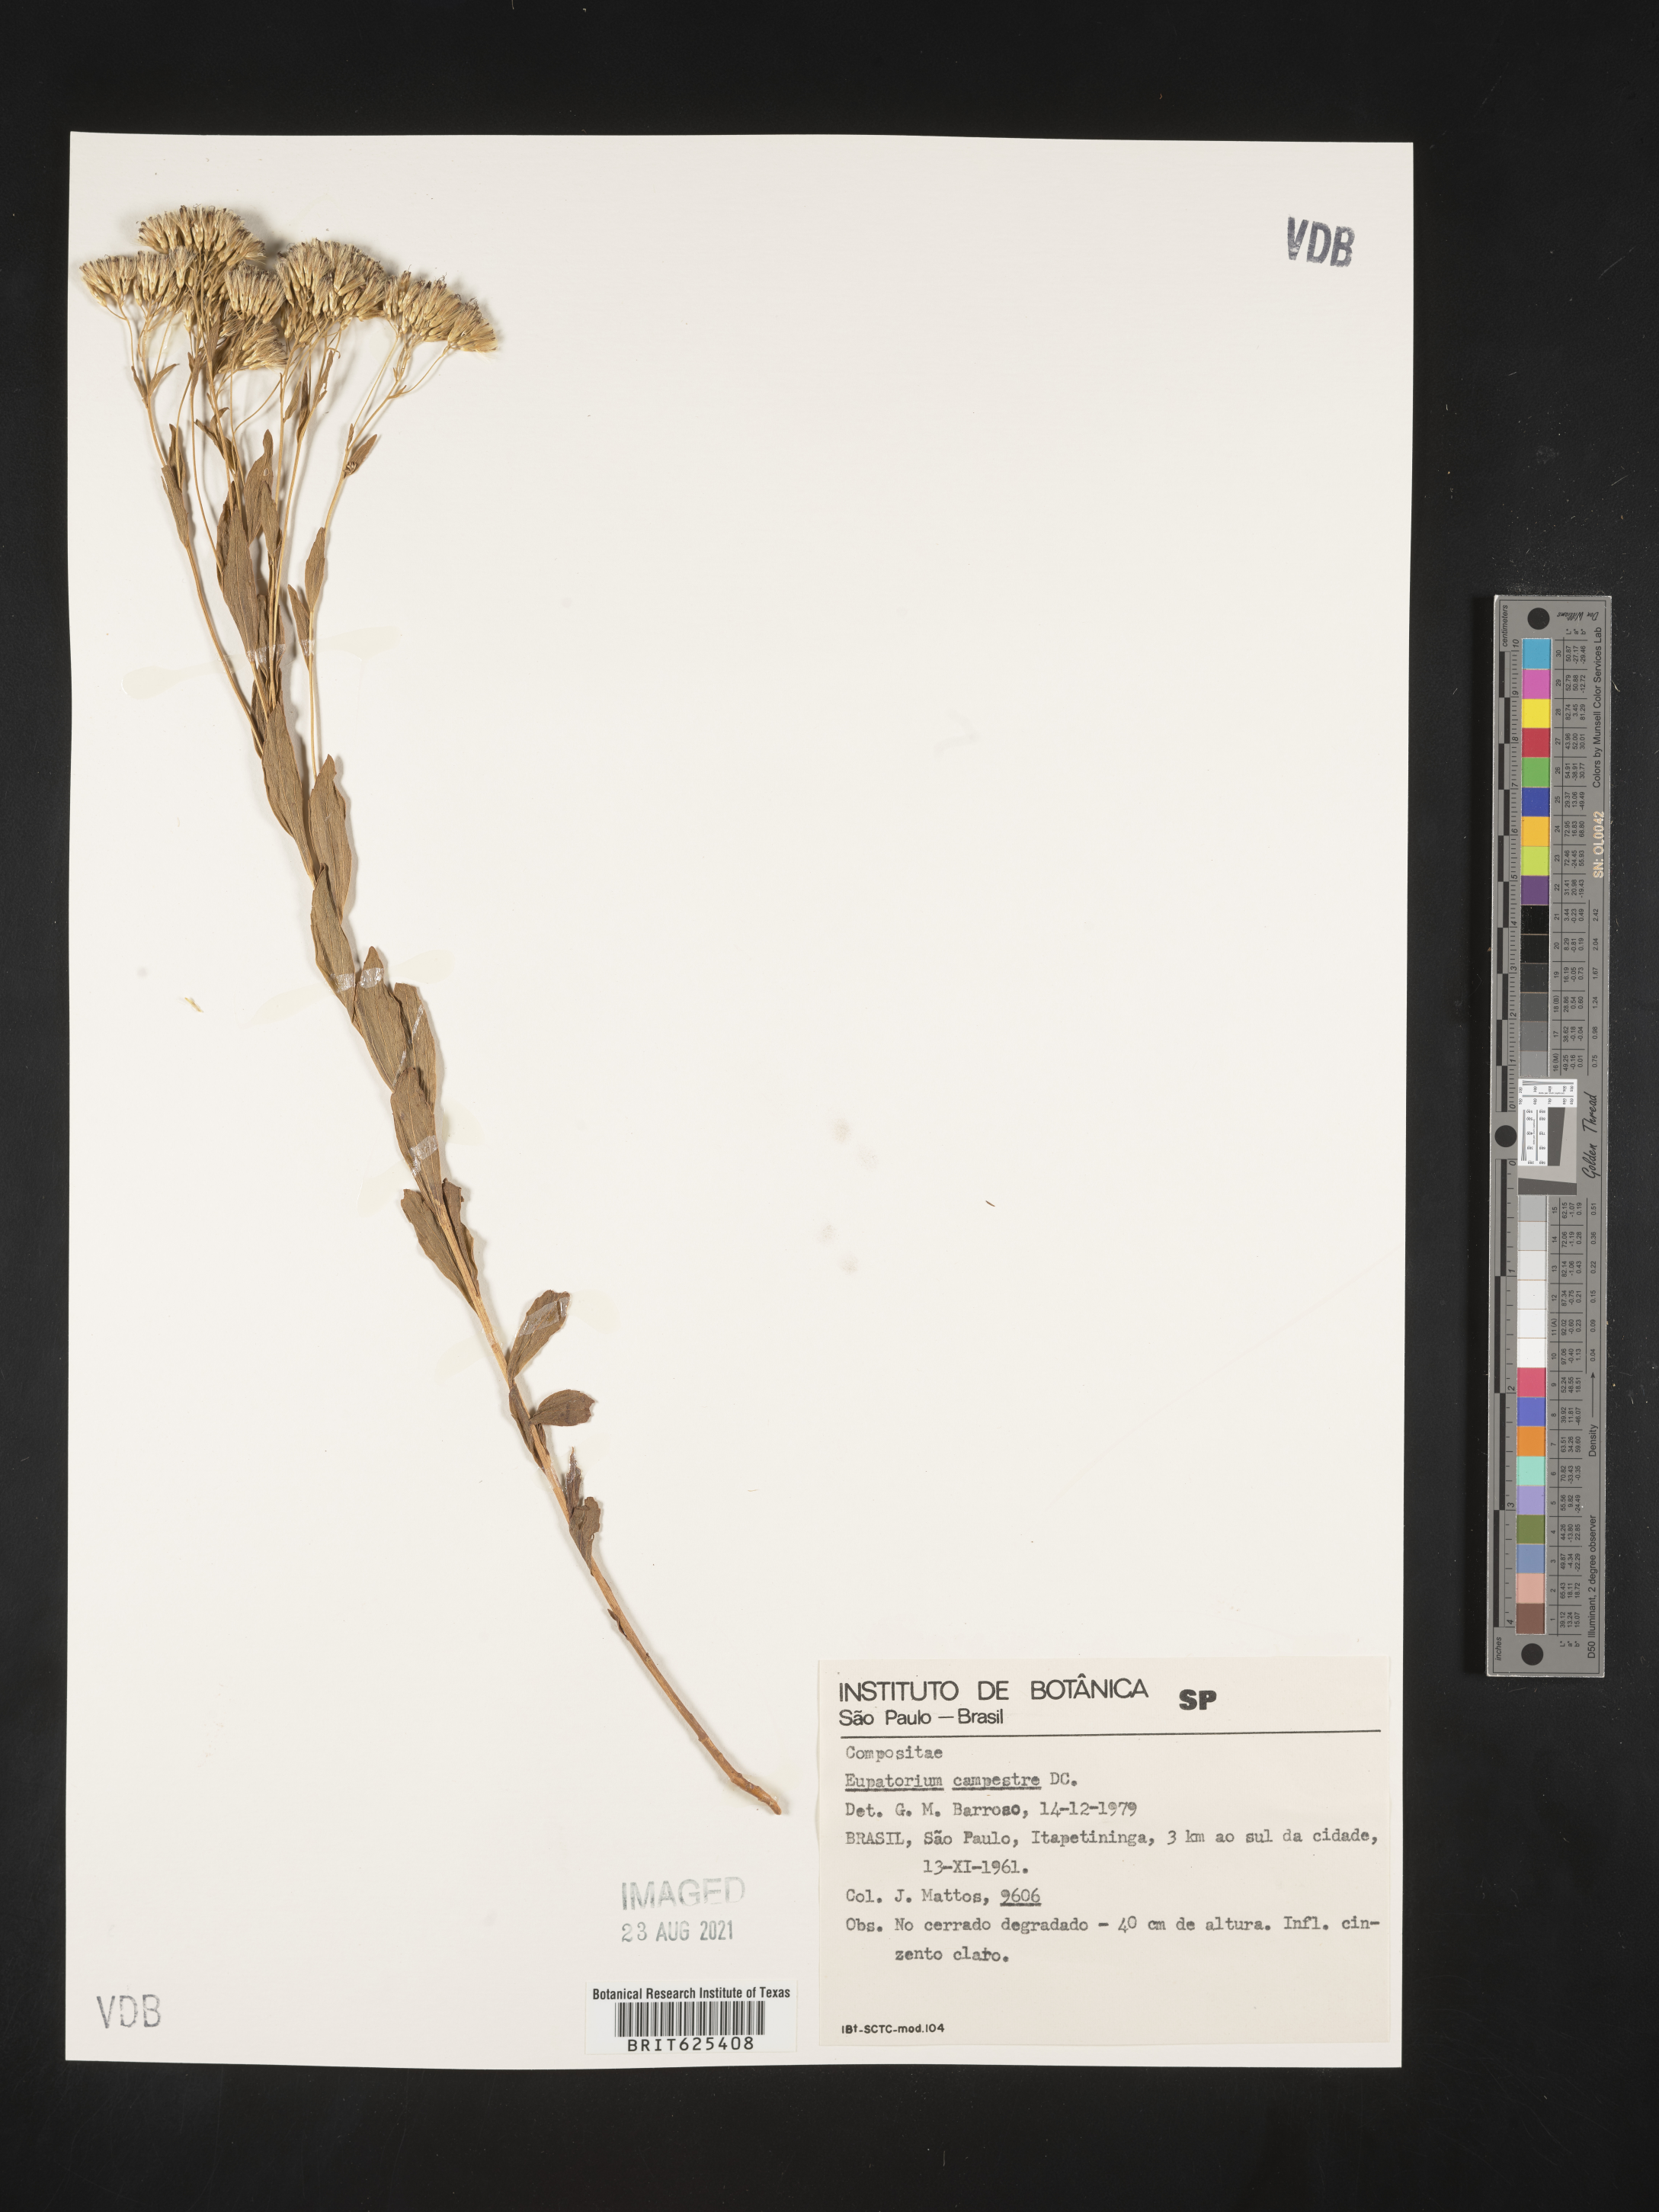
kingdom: Plantae
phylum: Tracheophyta
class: Magnoliopsida
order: Asterales
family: Asteraceae
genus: Chromolaena
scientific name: Chromolaena campestris
